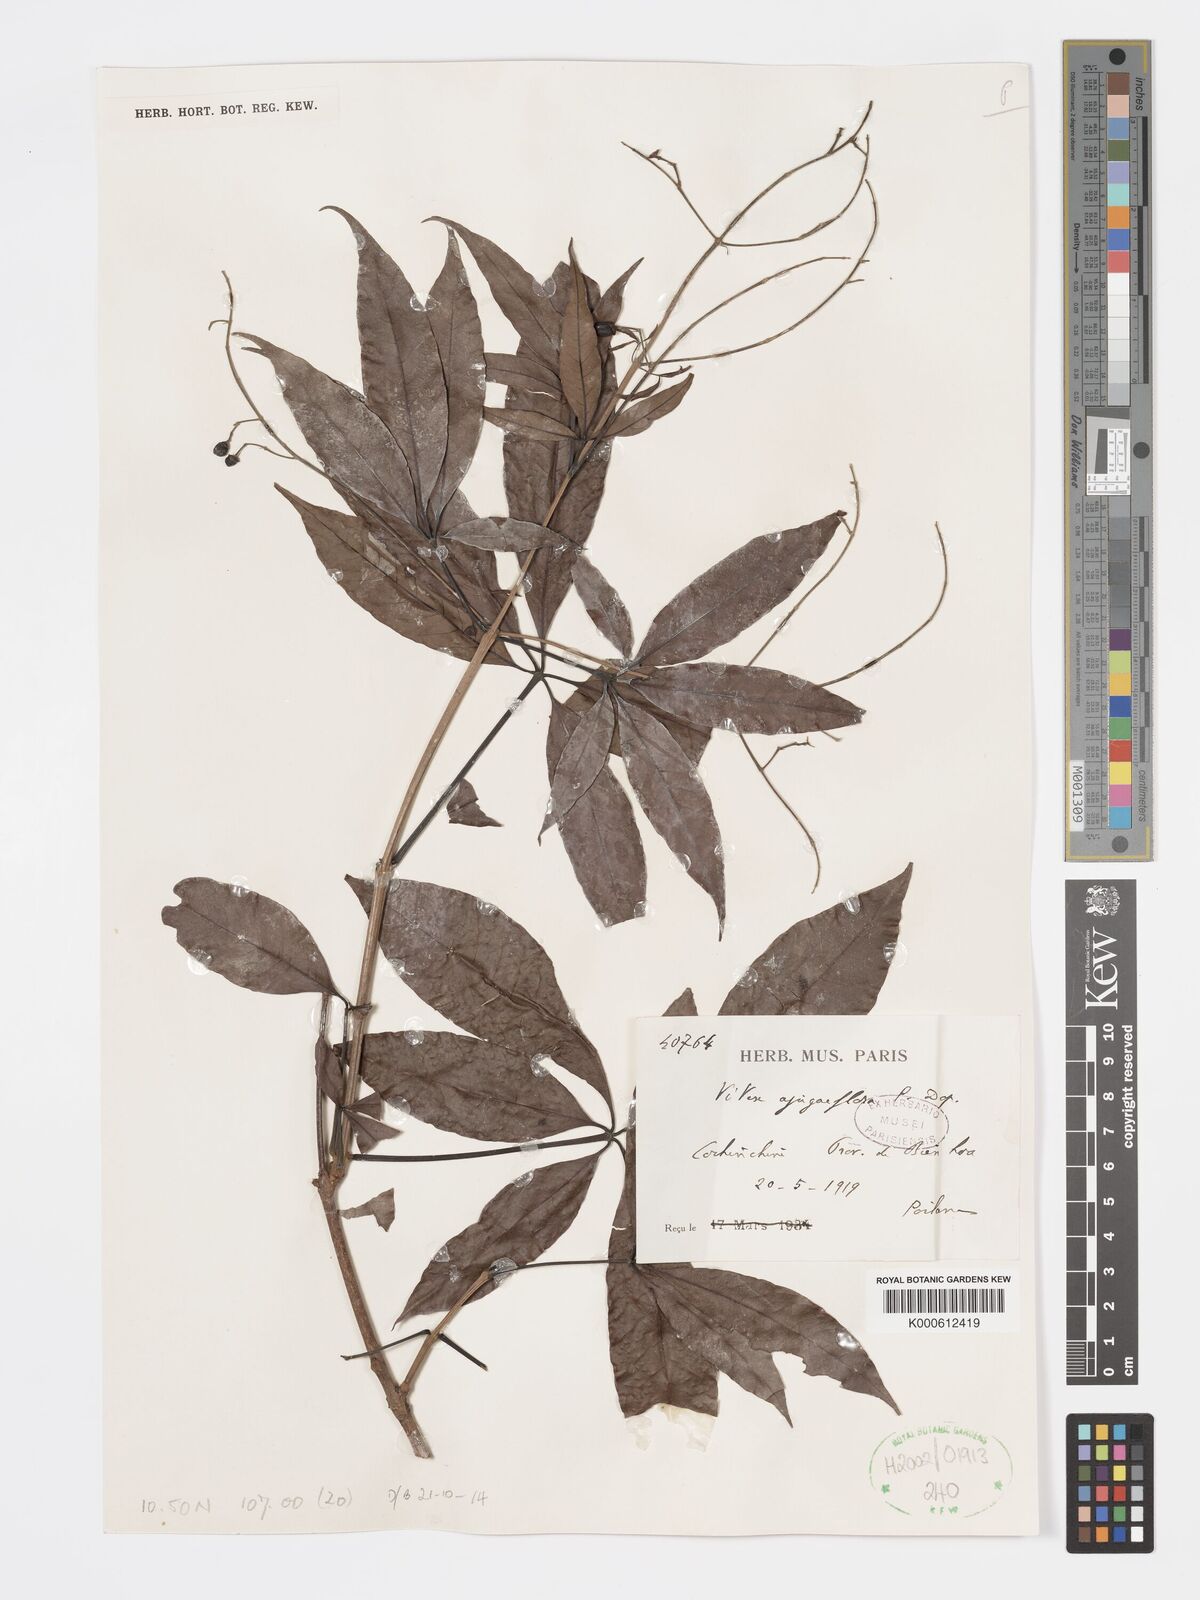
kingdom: Plantae
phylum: Tracheophyta
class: Magnoliopsida
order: Lamiales
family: Lamiaceae
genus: Vitex
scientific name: Vitex ajugiflora
